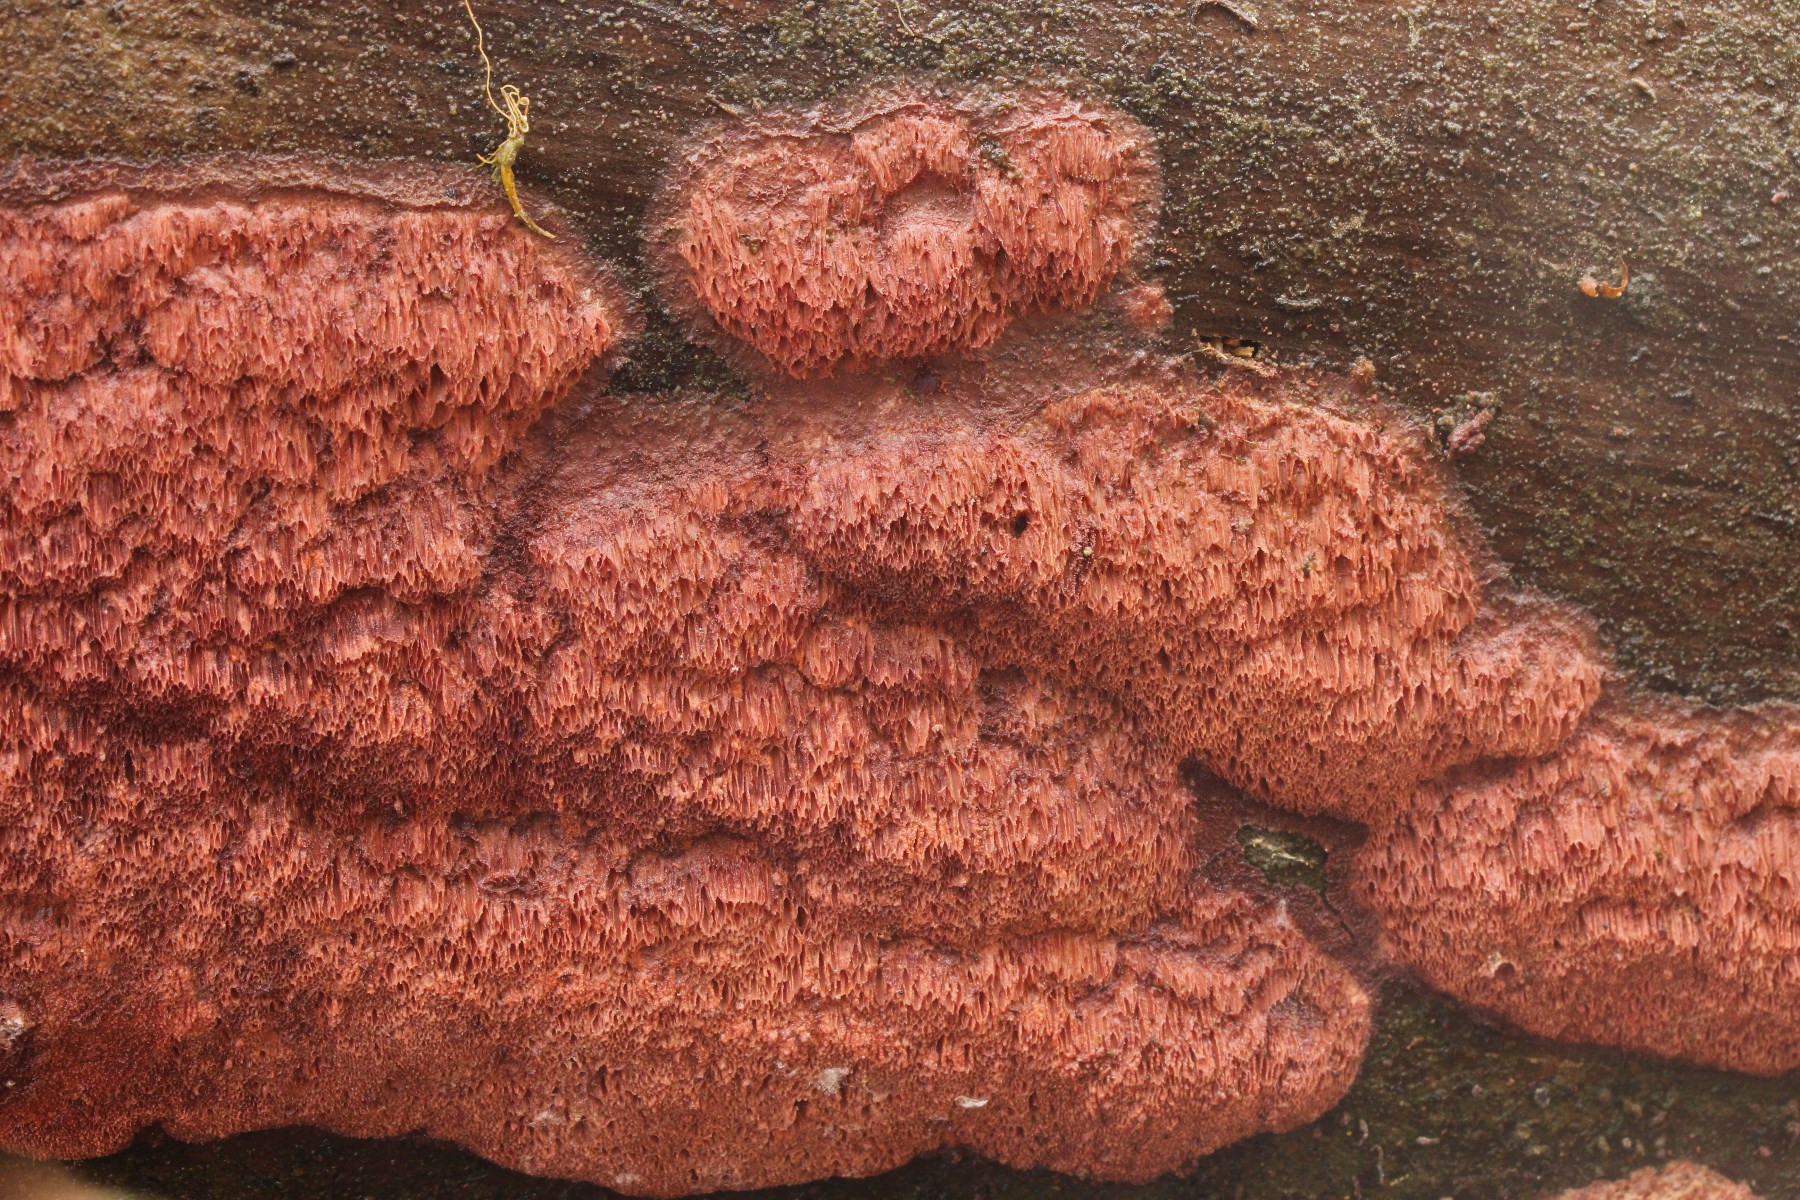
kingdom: Fungi
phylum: Basidiomycota
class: Agaricomycetes
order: Polyporales
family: Irpicaceae
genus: Meruliopsis
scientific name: Meruliopsis taxicola
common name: purpurbrun foldporesvamp
